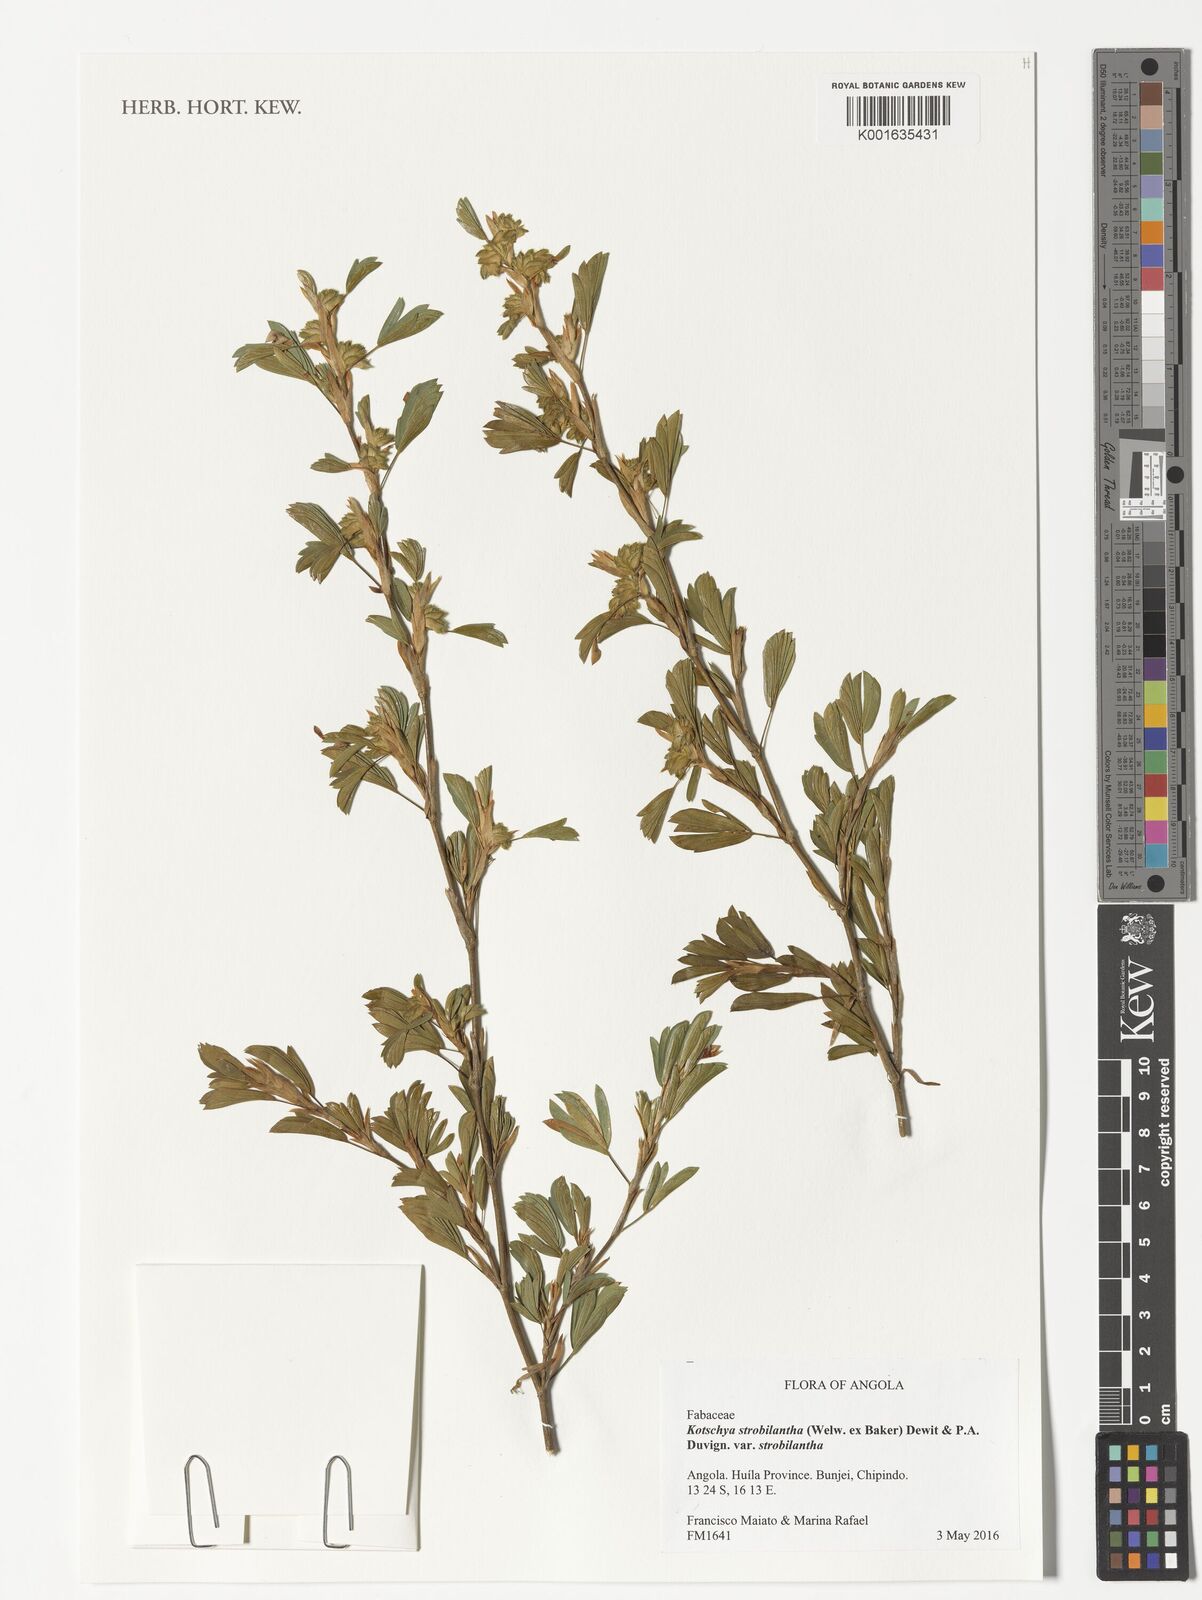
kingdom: Plantae
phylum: Tracheophyta
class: Magnoliopsida
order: Fabales
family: Fabaceae
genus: Kotschya
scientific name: Kotschya strobilantha
